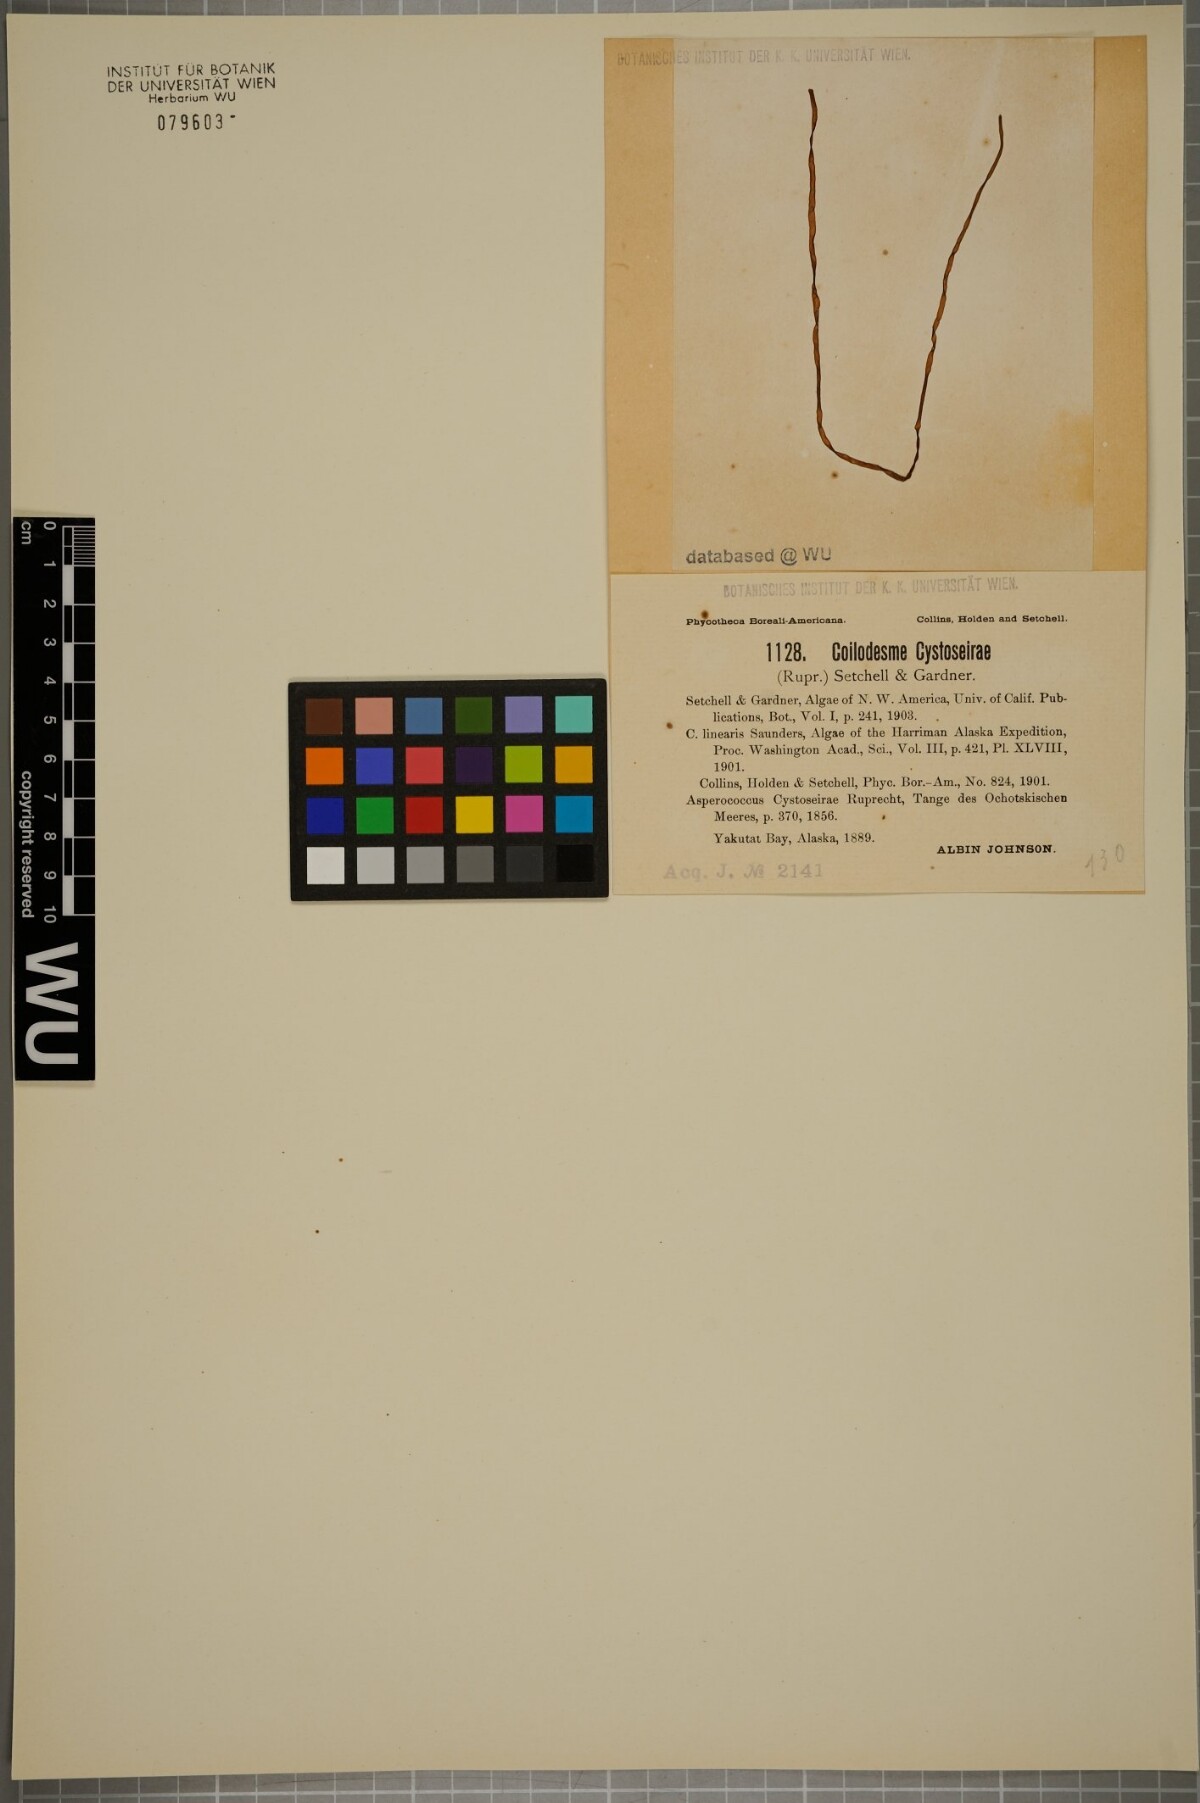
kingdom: Chromista
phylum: Ochrophyta
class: Phaeophyceae
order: Laminariales
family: Laminariaceae
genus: Coilodesme
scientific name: Coilodesme cystoseira
